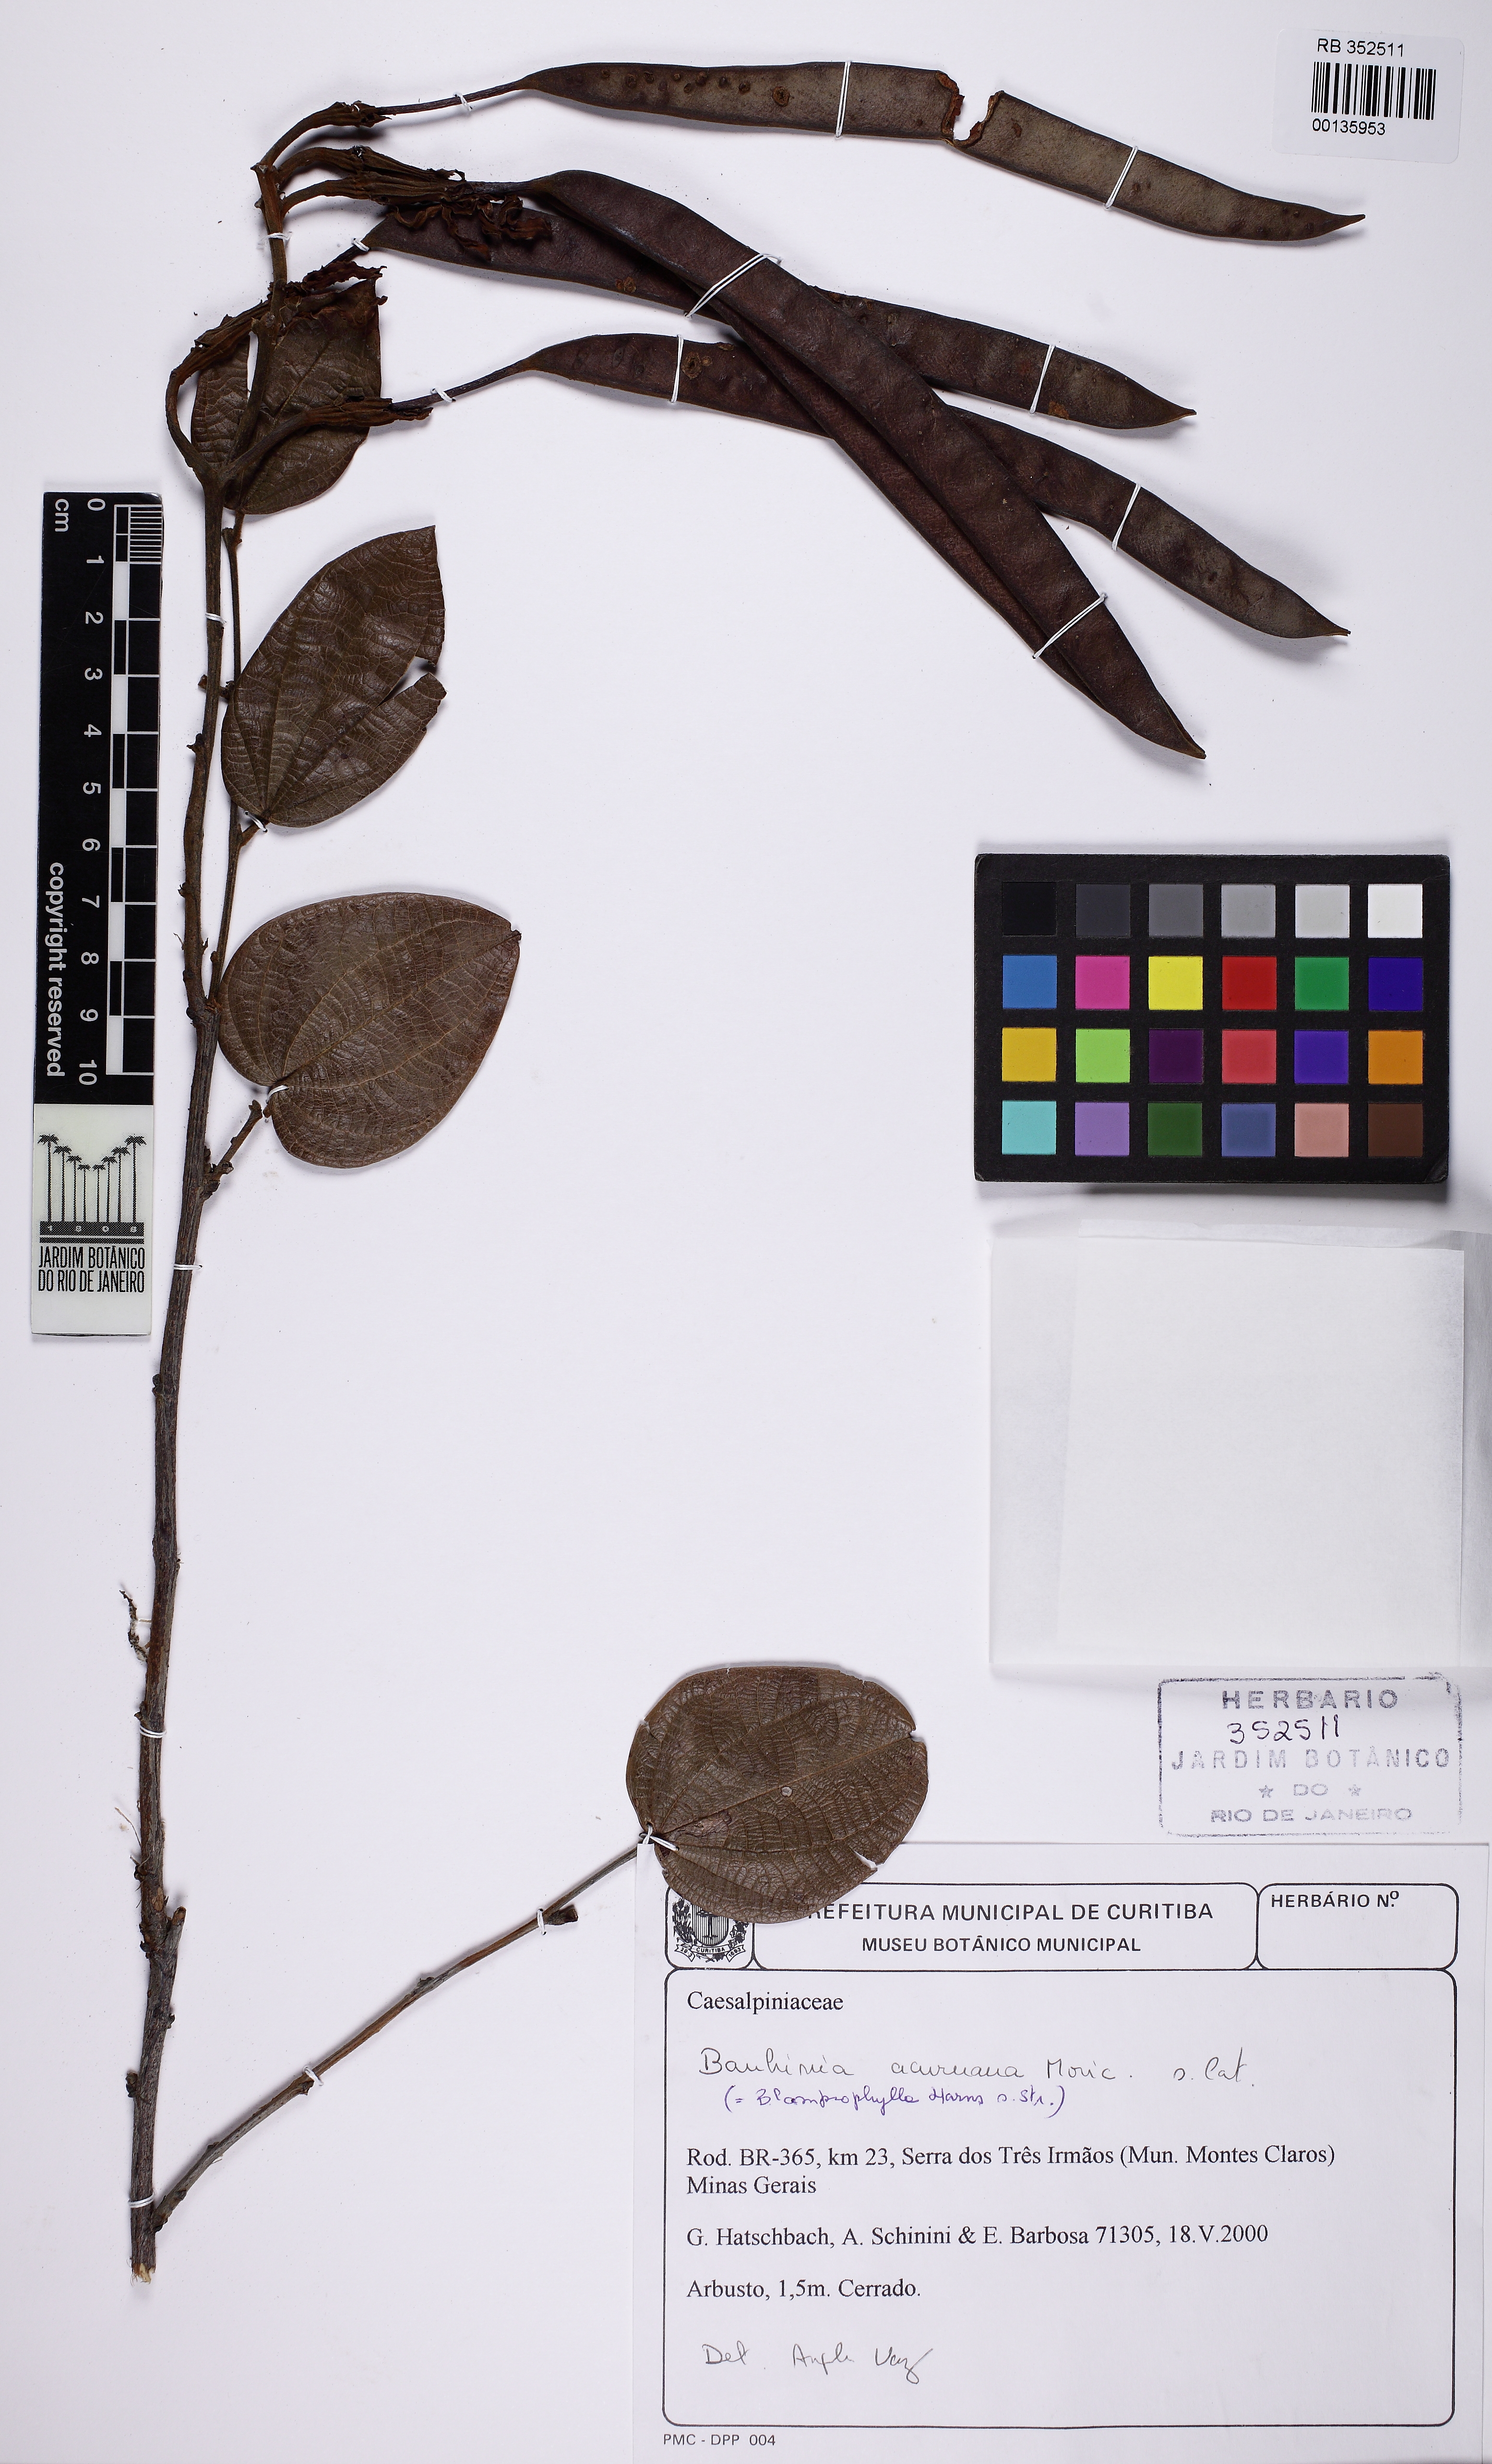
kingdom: Plantae
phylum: Tracheophyta
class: Magnoliopsida
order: Fabales
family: Fabaceae
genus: Bauhinia
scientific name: Bauhinia acuruana
